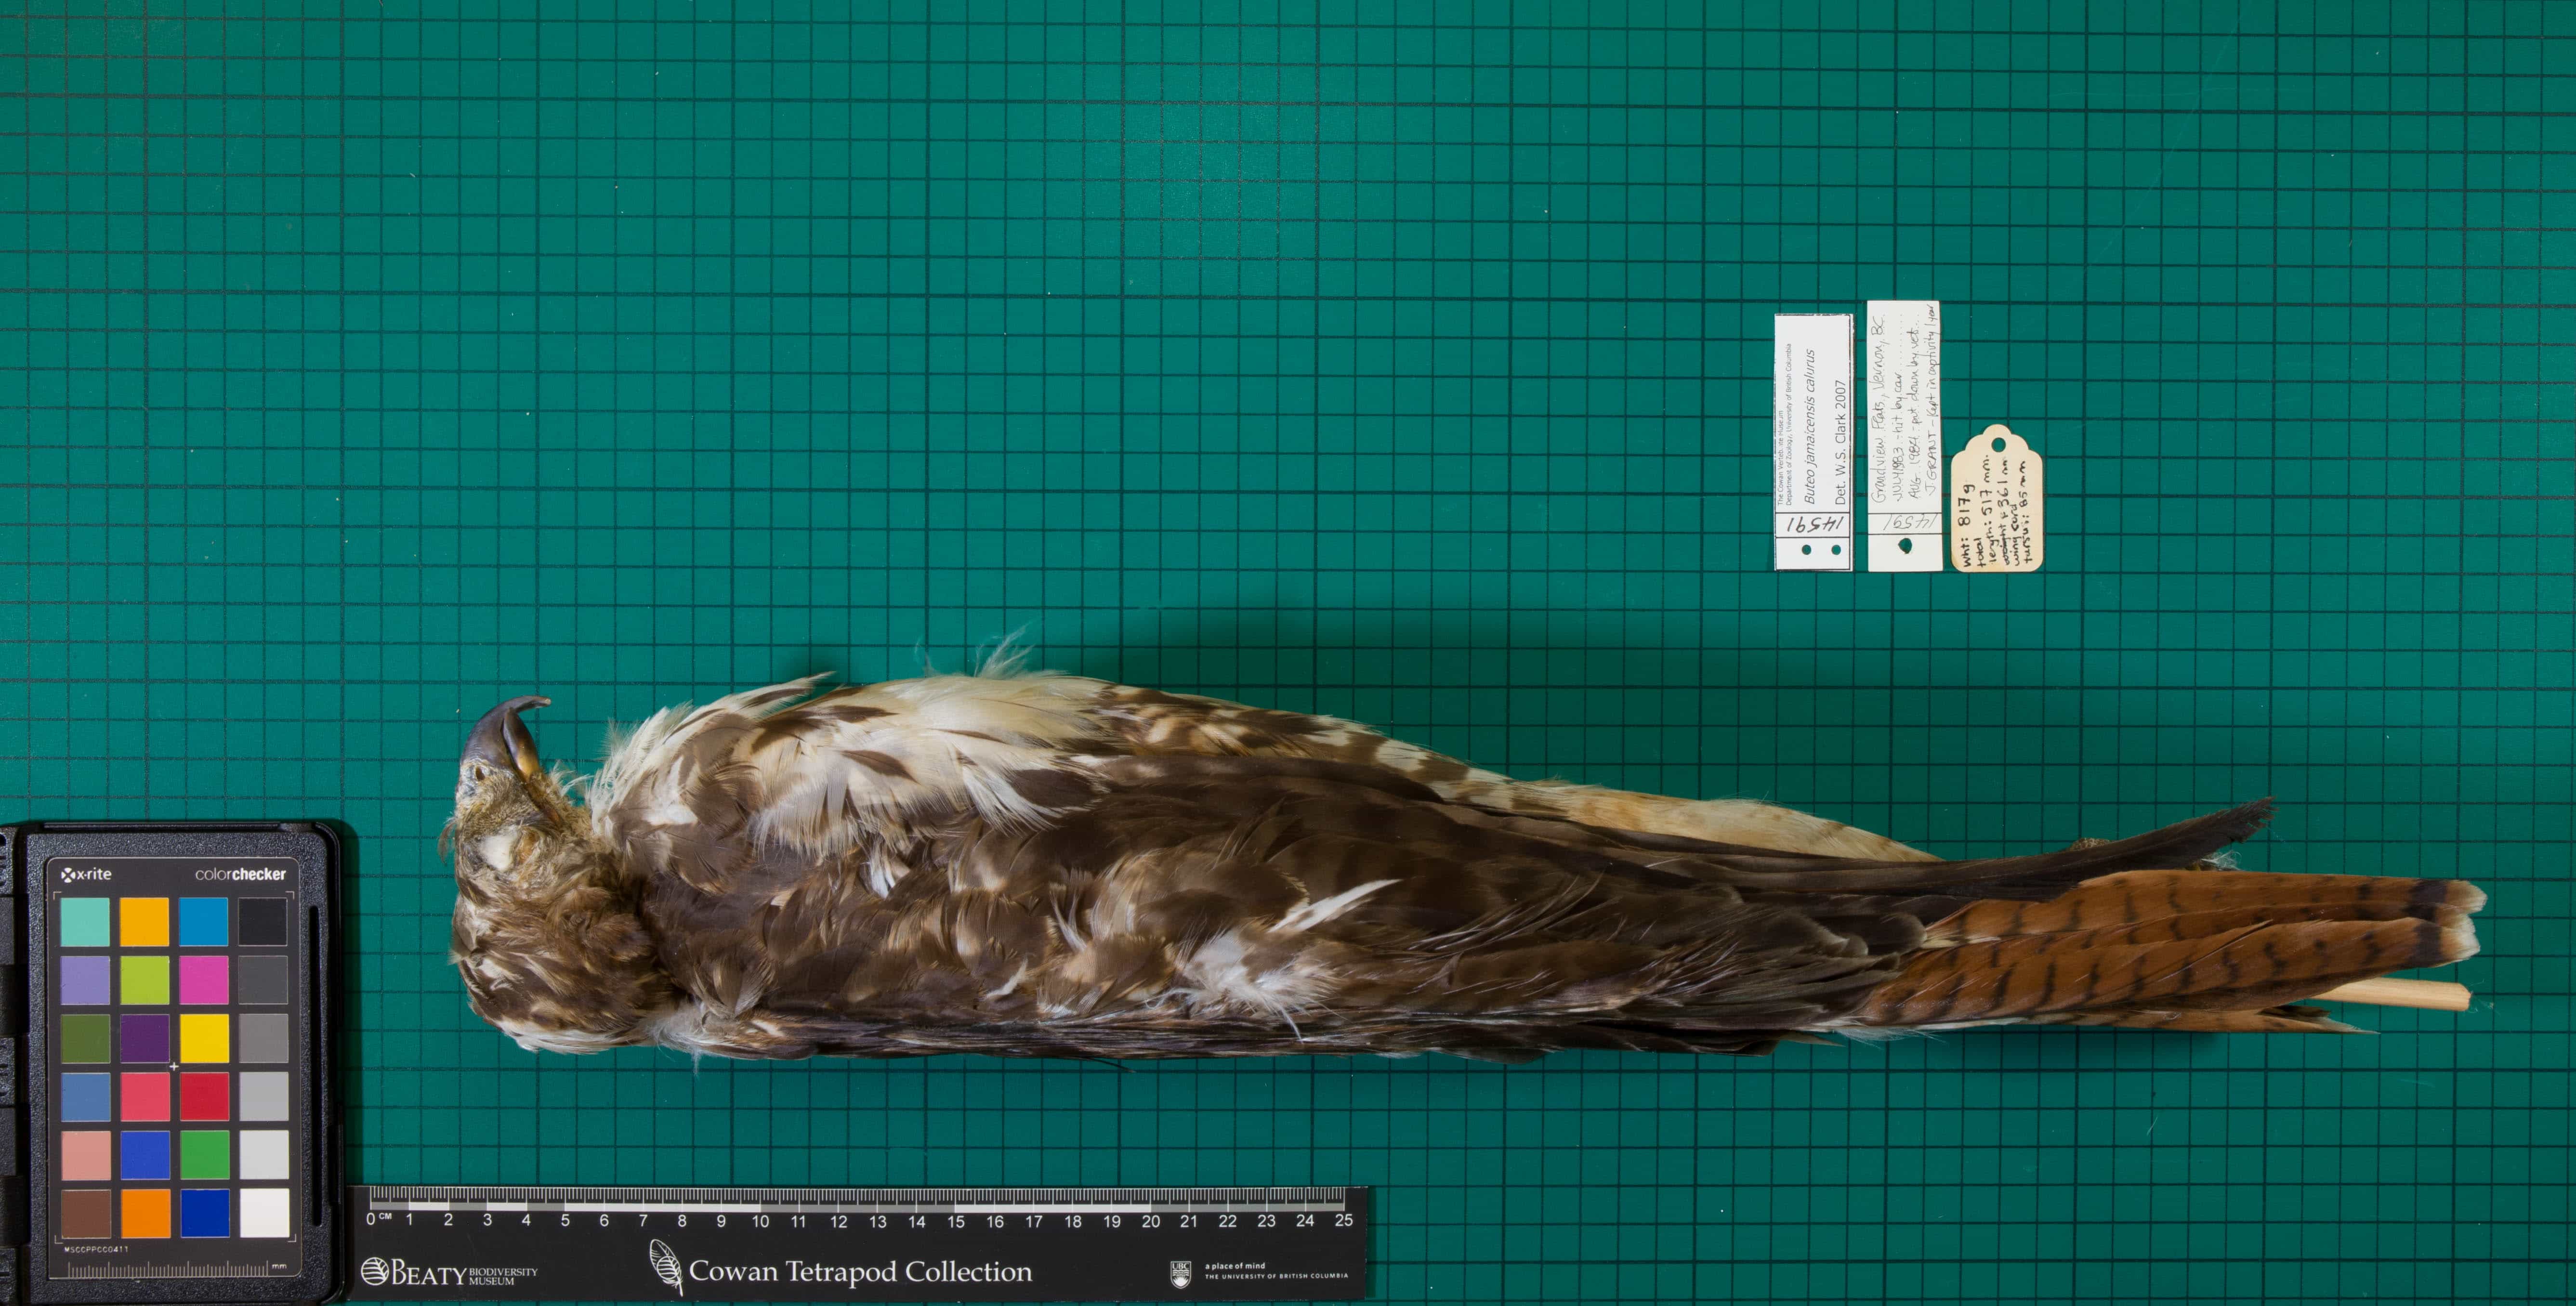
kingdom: Animalia
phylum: Chordata
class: Aves
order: Accipitriformes
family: Accipitridae
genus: Buteo
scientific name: Buteo jamaicensis
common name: Red-tailed Hawk
